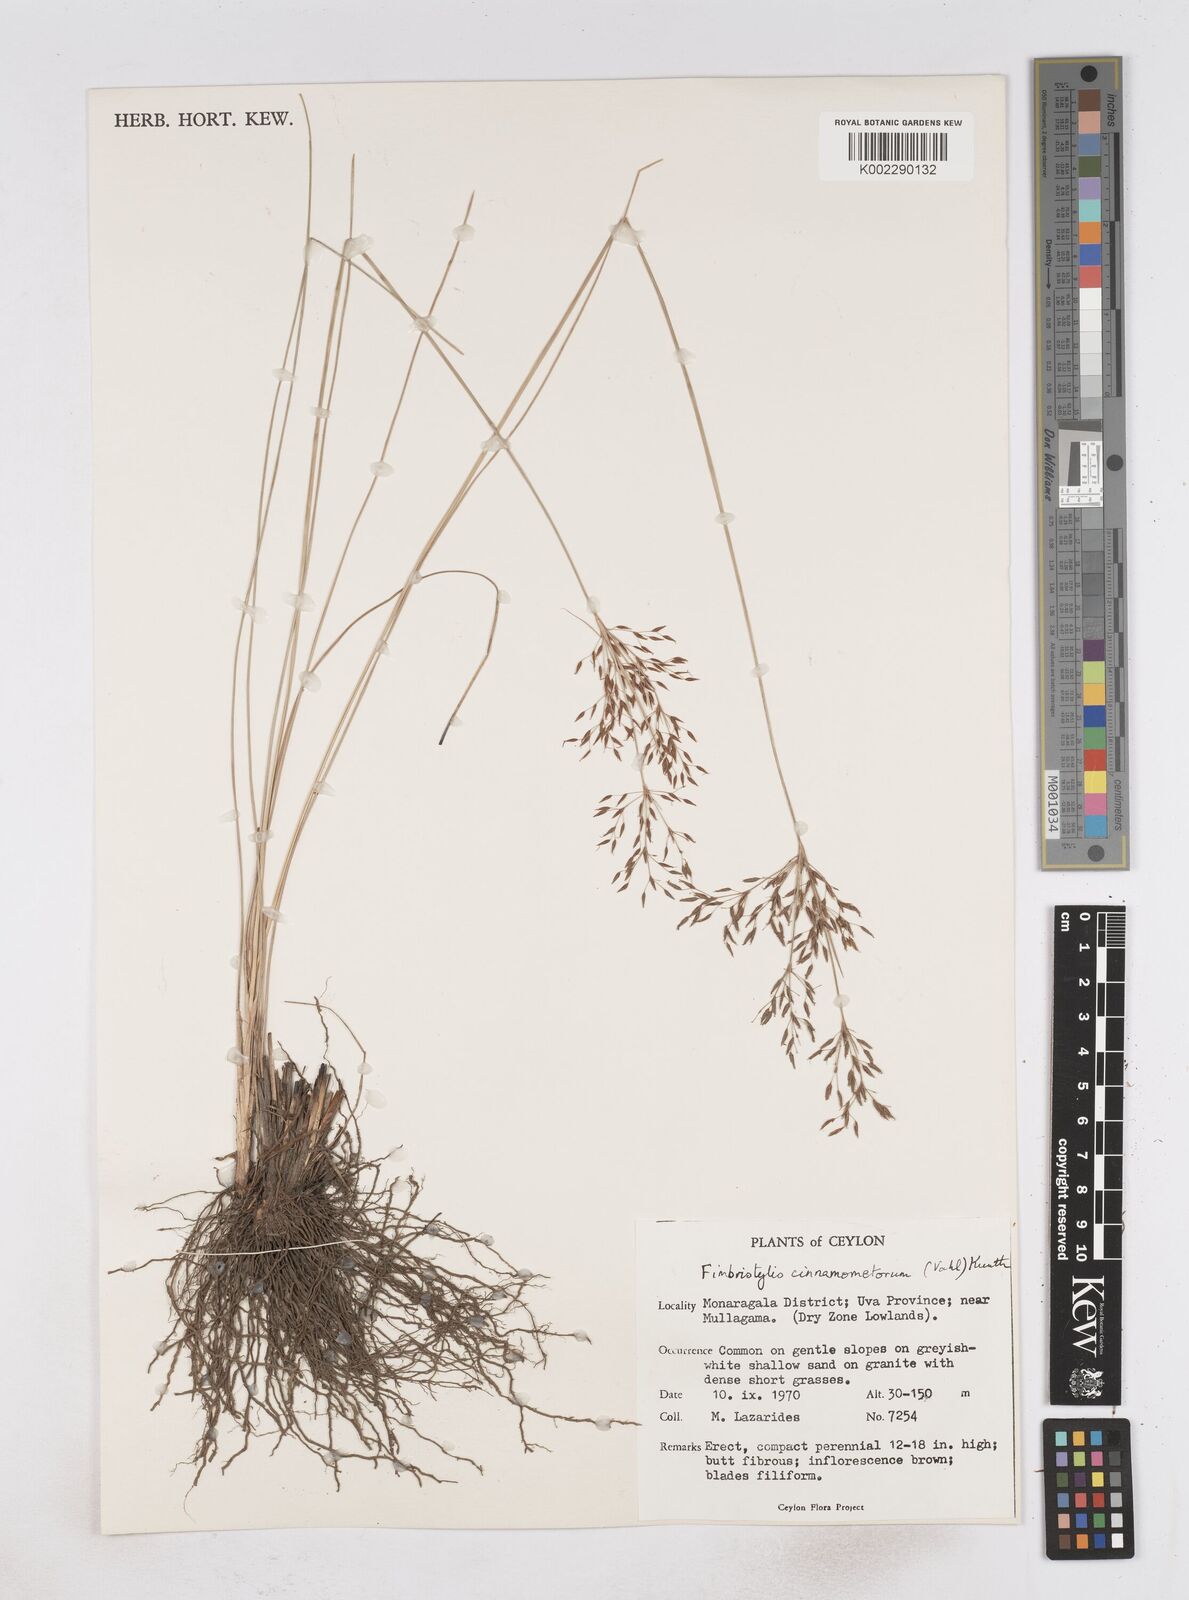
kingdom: Plantae
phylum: Tracheophyta
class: Liliopsida
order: Poales
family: Cyperaceae
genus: Fimbristylis
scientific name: Fimbristylis cinnamometorum
